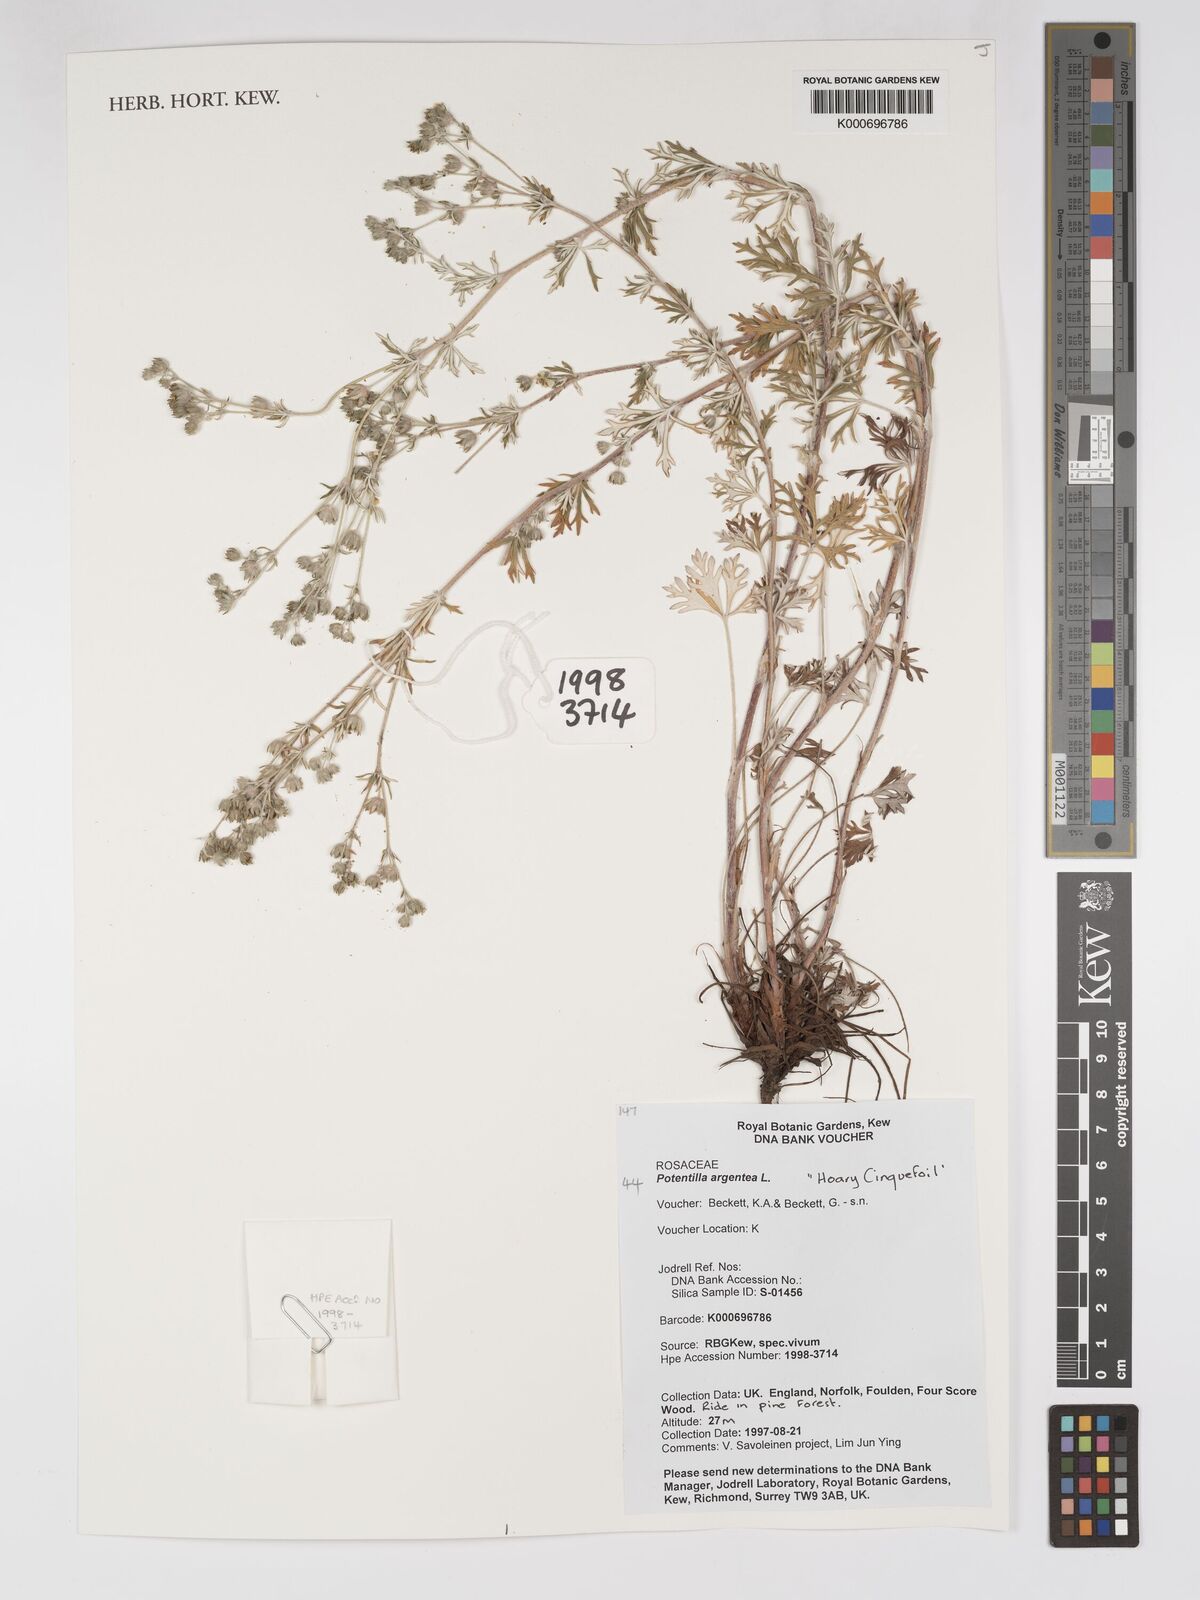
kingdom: Plantae
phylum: Tracheophyta
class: Magnoliopsida
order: Rosales
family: Rosaceae
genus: Potentilla
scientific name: Potentilla argentea
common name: Hoary cinquefoil
